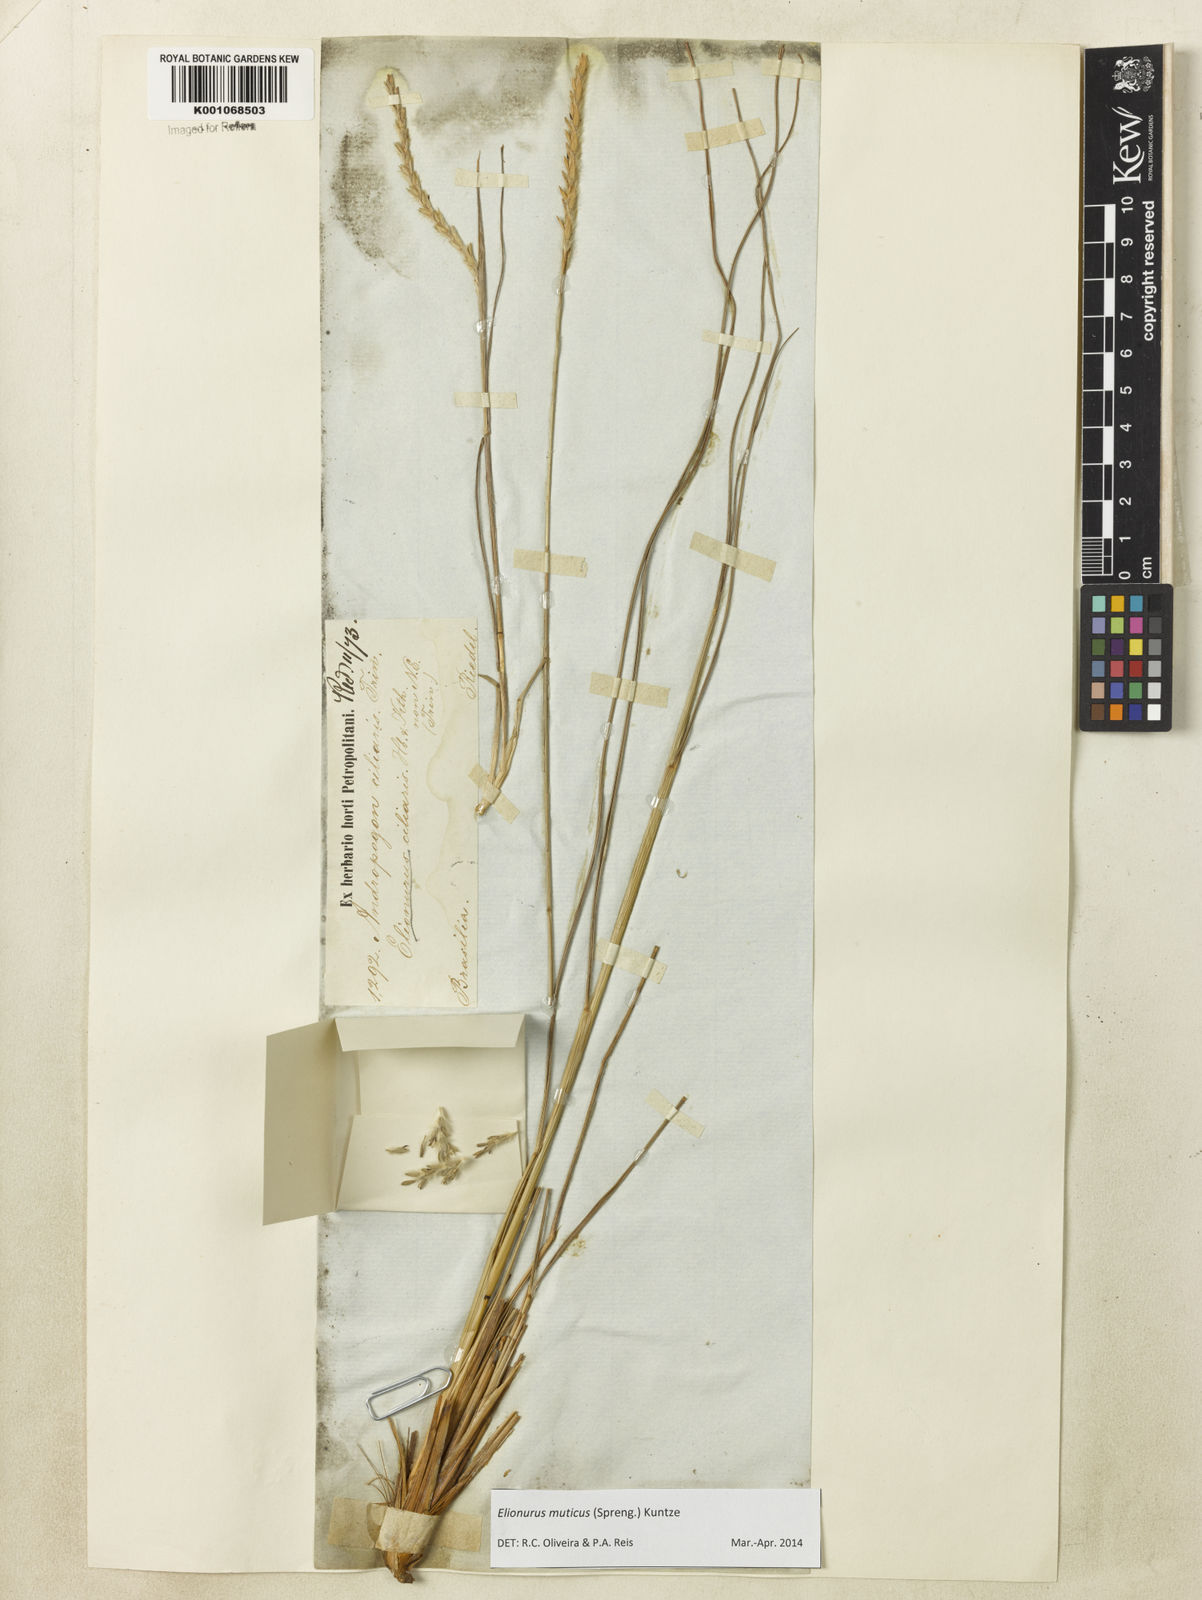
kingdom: Plantae
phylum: Tracheophyta
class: Liliopsida
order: Poales
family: Poaceae
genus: Elionurus
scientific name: Elionurus muticus
